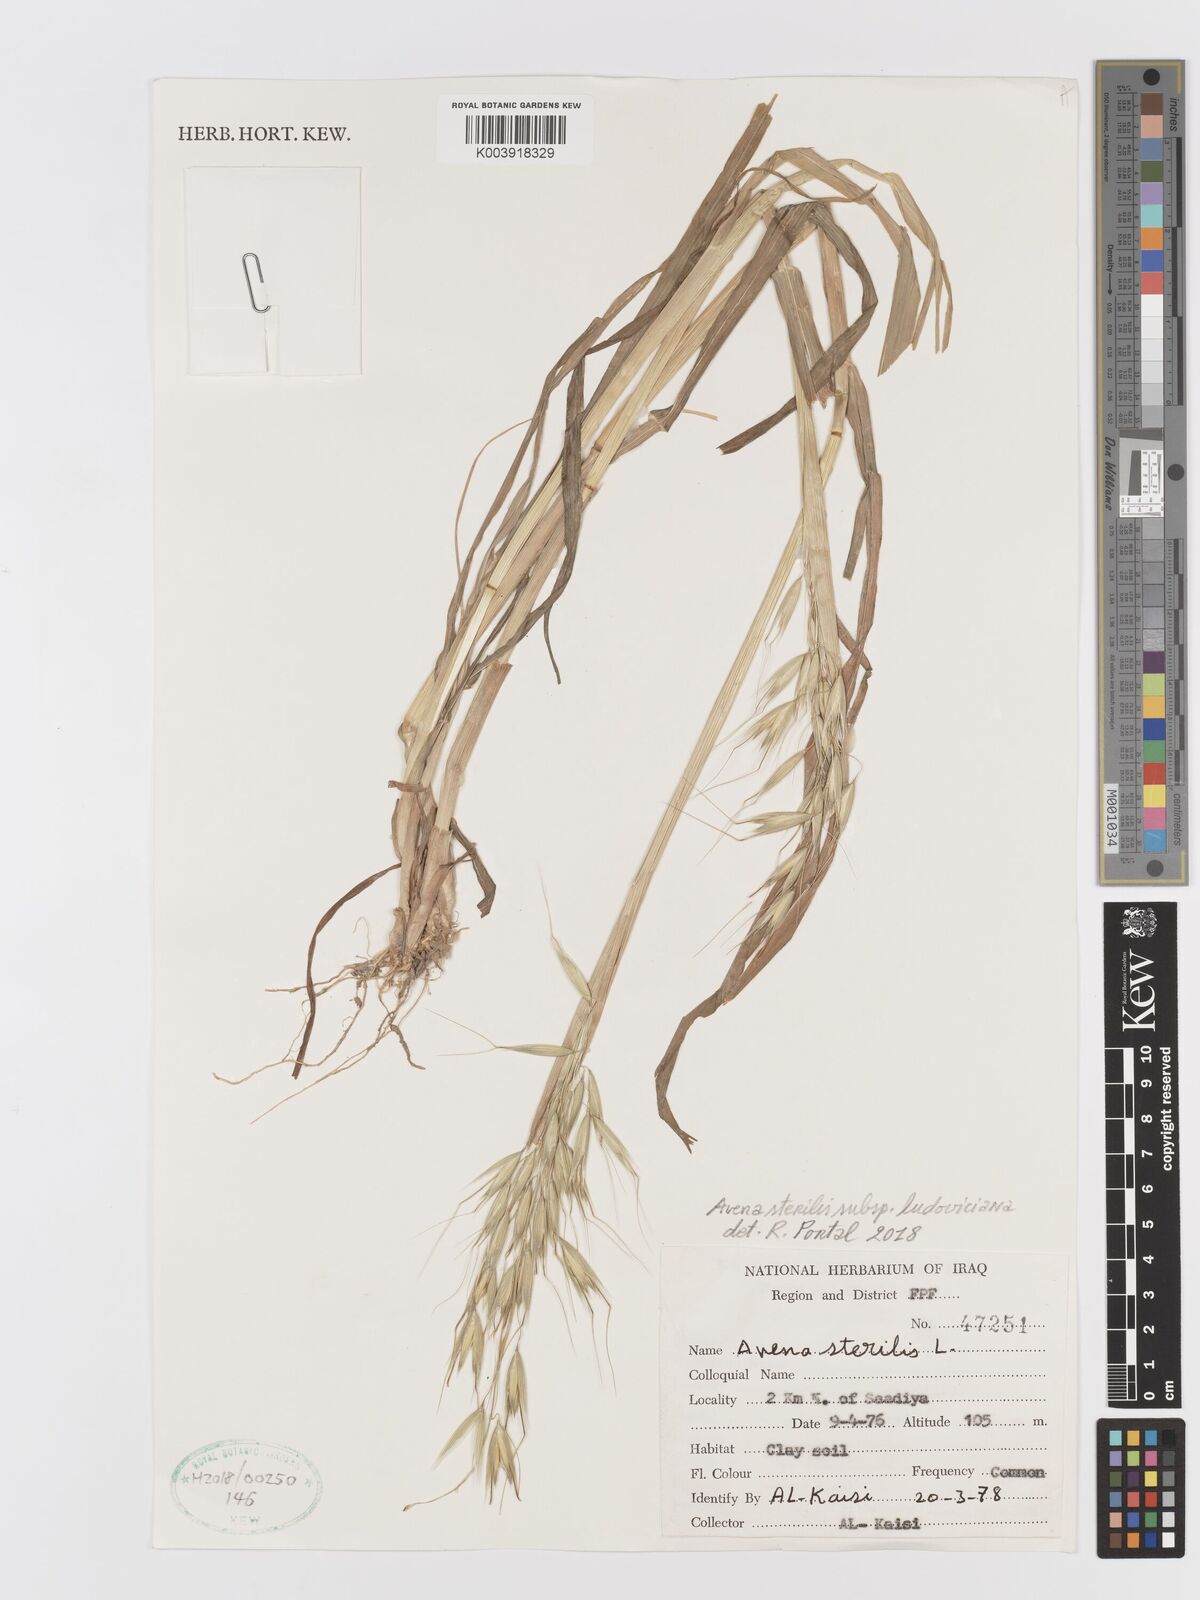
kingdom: Plantae
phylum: Tracheophyta
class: Liliopsida
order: Poales
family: Poaceae
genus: Avena
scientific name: Avena sterilis
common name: Animated oat
